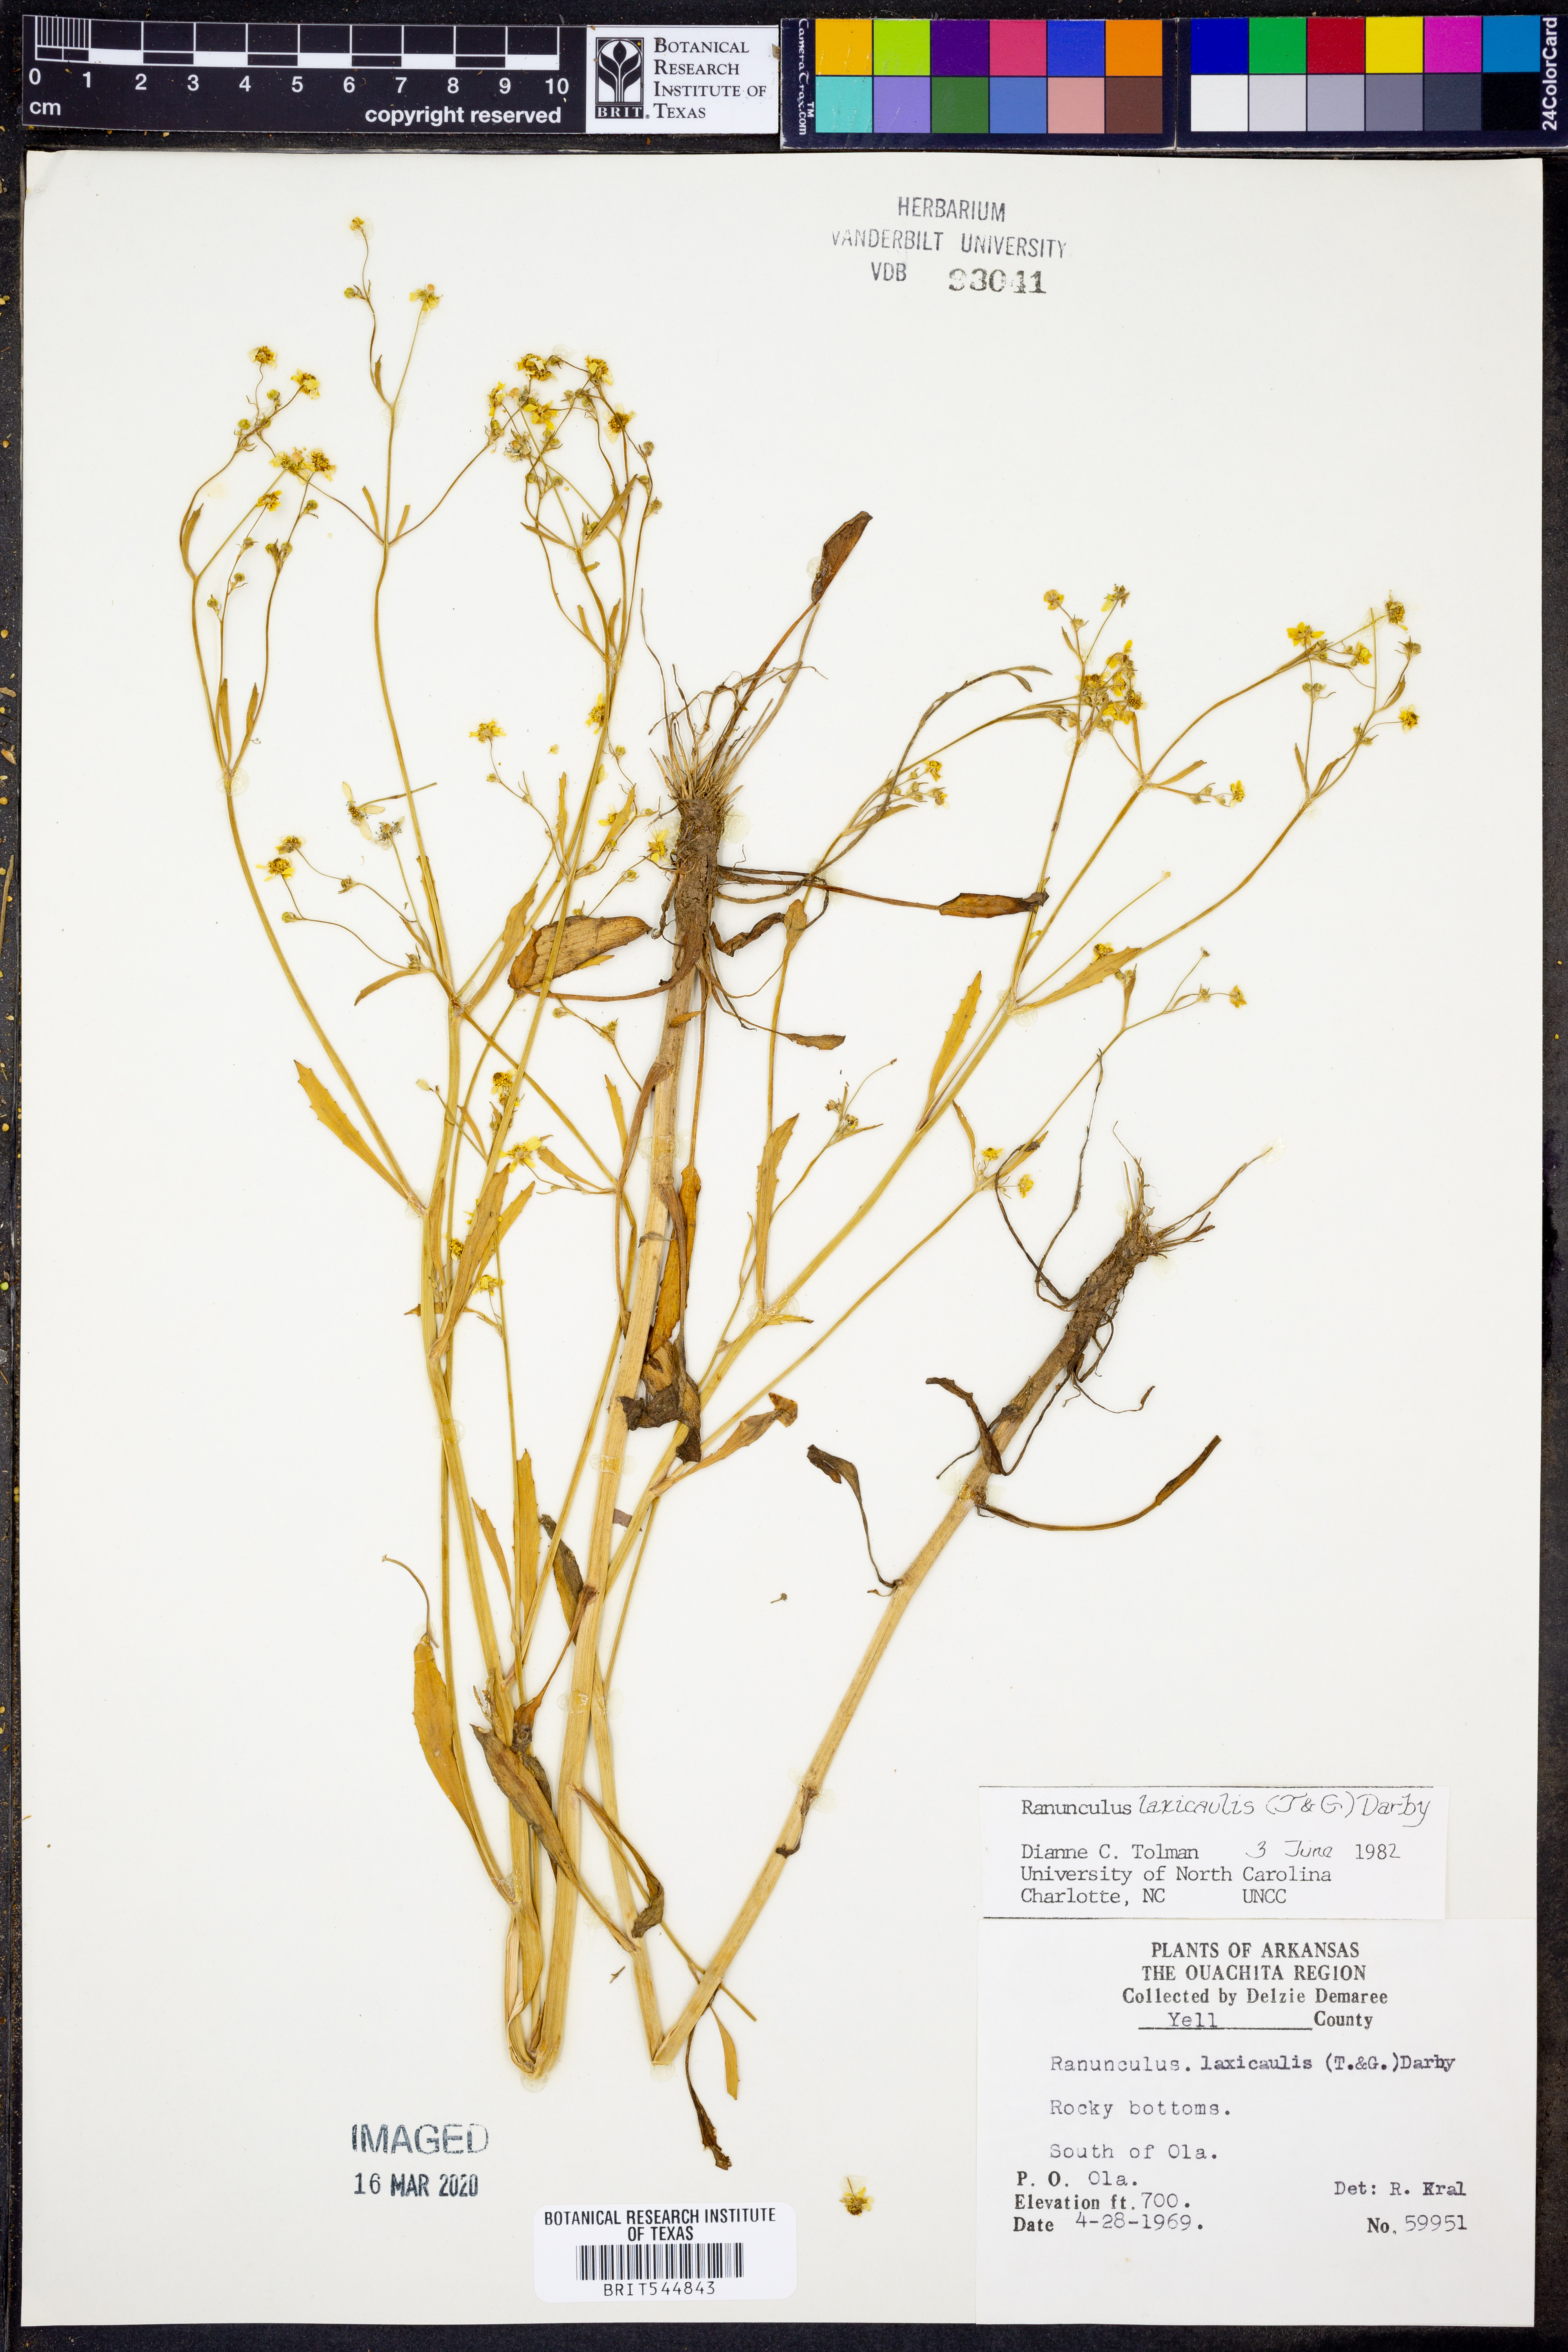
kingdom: Plantae
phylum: Tracheophyta
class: Magnoliopsida
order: Ranunculales
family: Ranunculaceae
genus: Ranunculus
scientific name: Ranunculus laxicaulis
